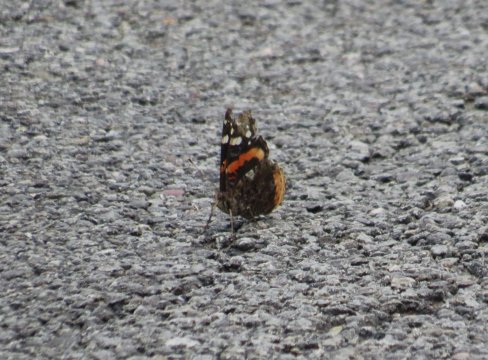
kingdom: Animalia
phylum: Arthropoda
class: Insecta
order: Lepidoptera
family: Nymphalidae
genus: Vanessa
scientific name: Vanessa atalanta
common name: Red Admiral
